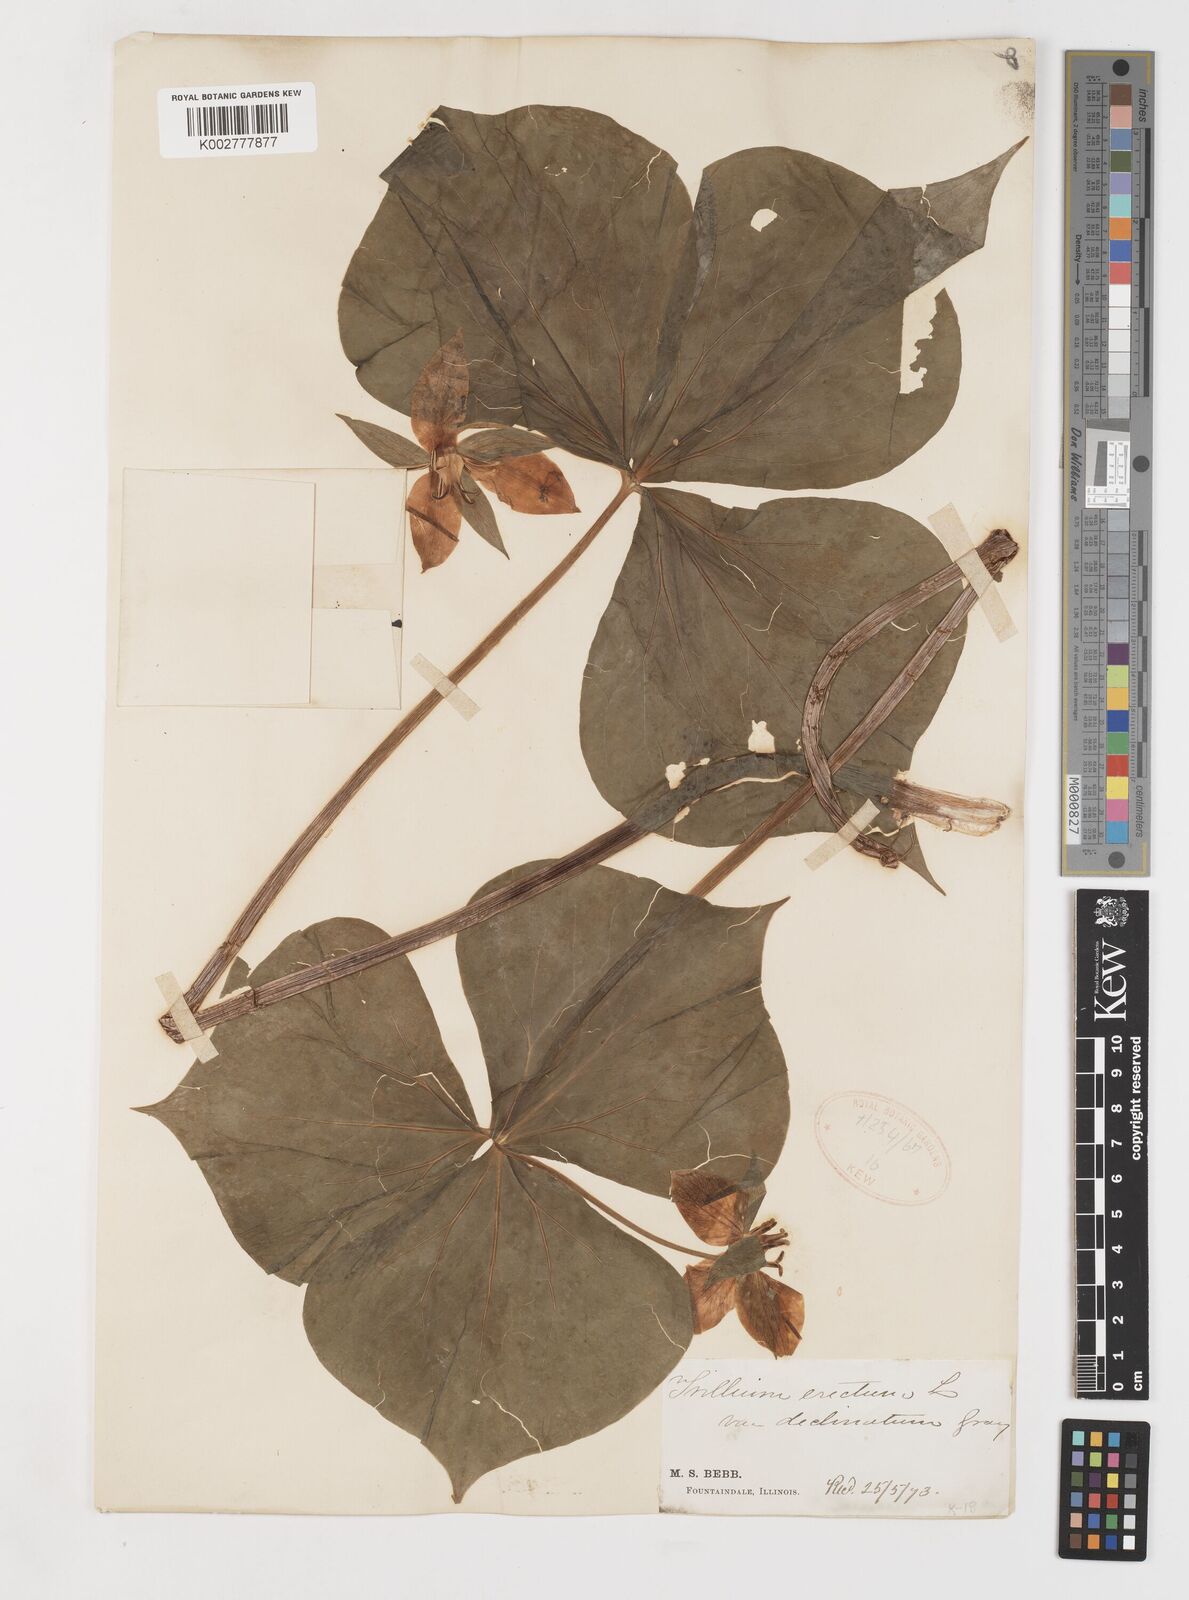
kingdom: Plantae
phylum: Tracheophyta
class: Liliopsida
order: Liliales
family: Melanthiaceae
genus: Trillium
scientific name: Trillium erectum
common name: Purple trillium
